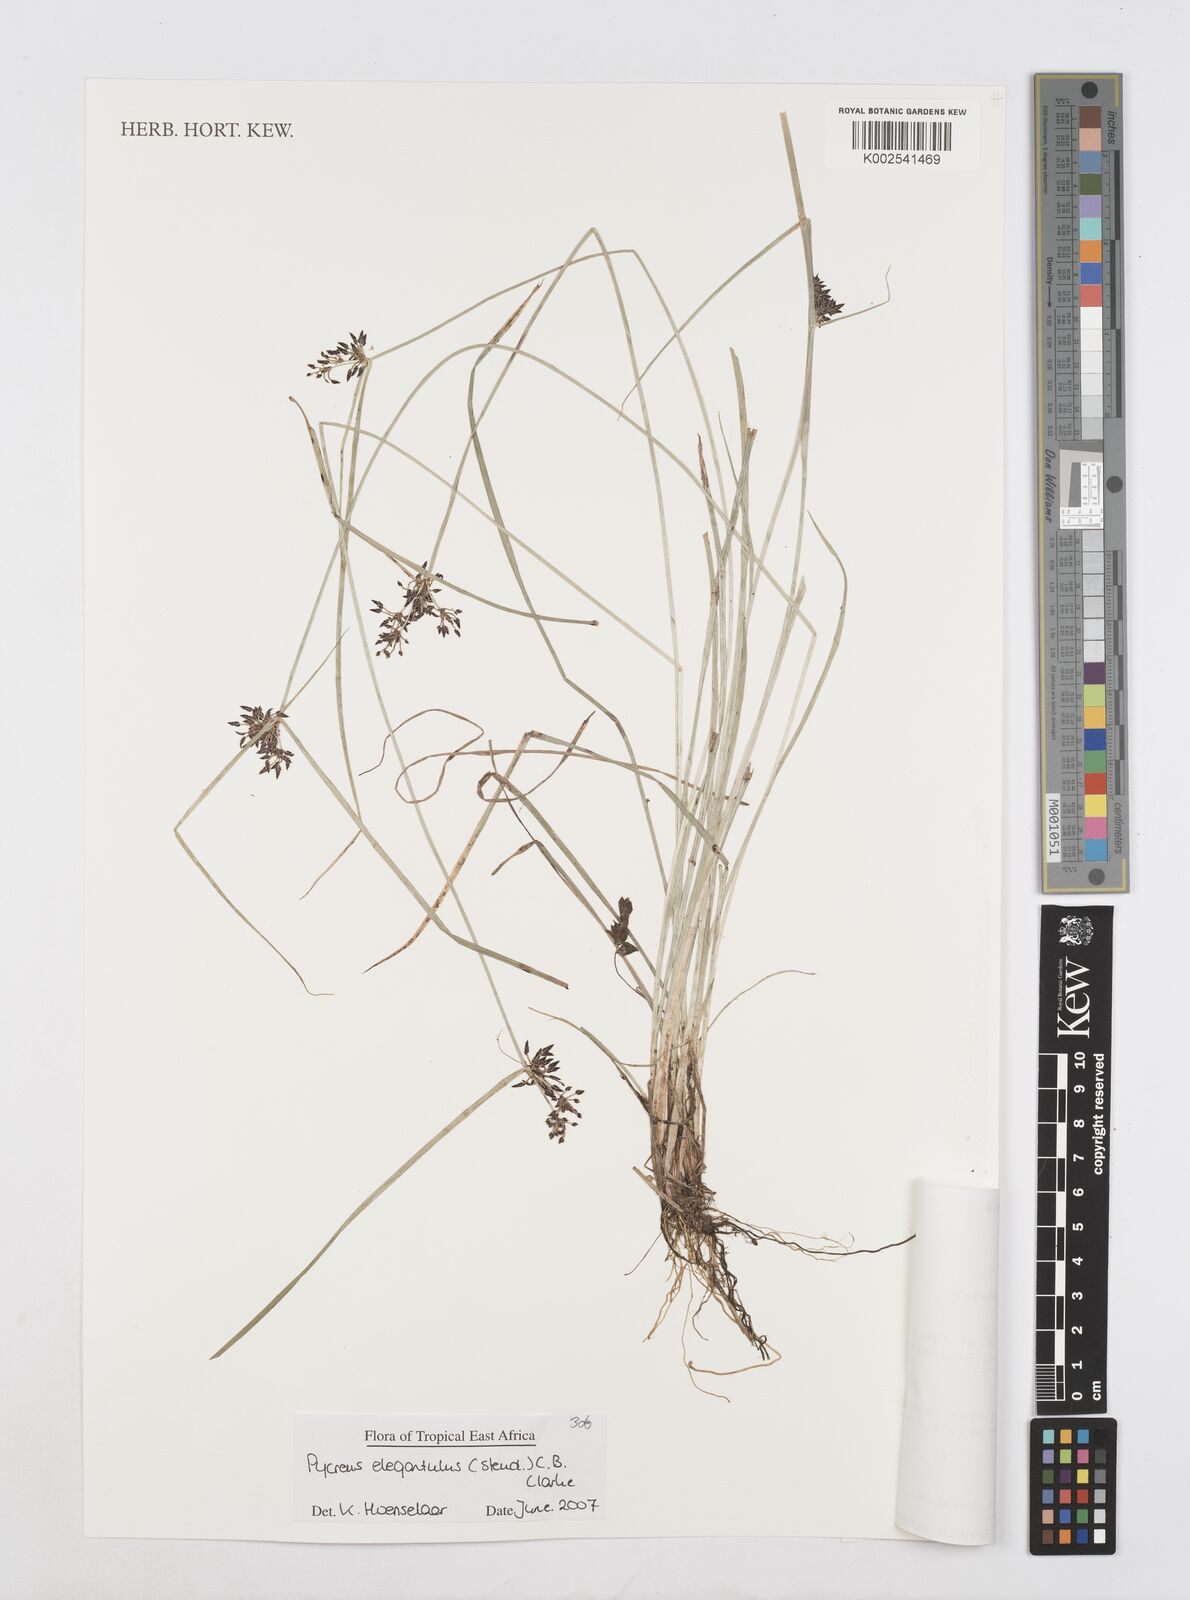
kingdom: Plantae
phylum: Tracheophyta
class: Liliopsida
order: Poales
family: Cyperaceae
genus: Cyperus
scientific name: Cyperus elegantulus
